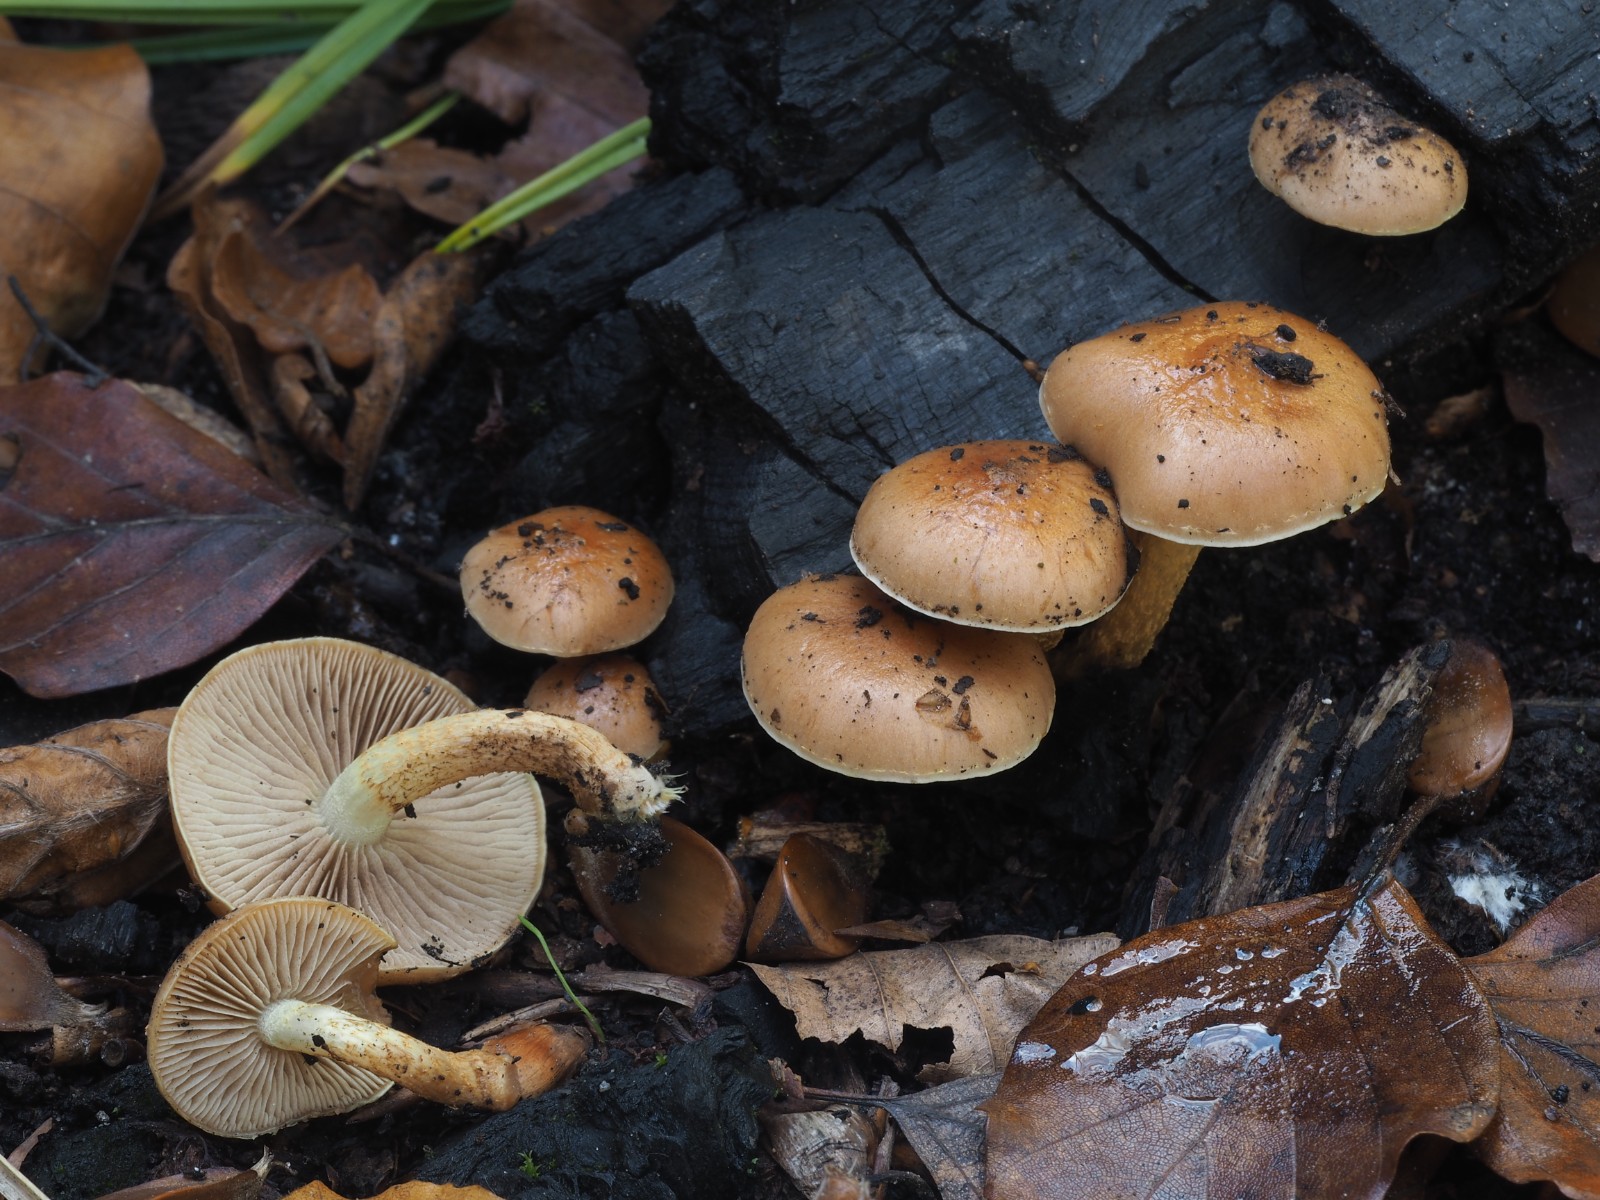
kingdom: Fungi
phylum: Basidiomycota
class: Agaricomycetes
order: Agaricales
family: Strophariaceae
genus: Pholiota
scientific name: Pholiota carbonaria
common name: kul-skælhat
